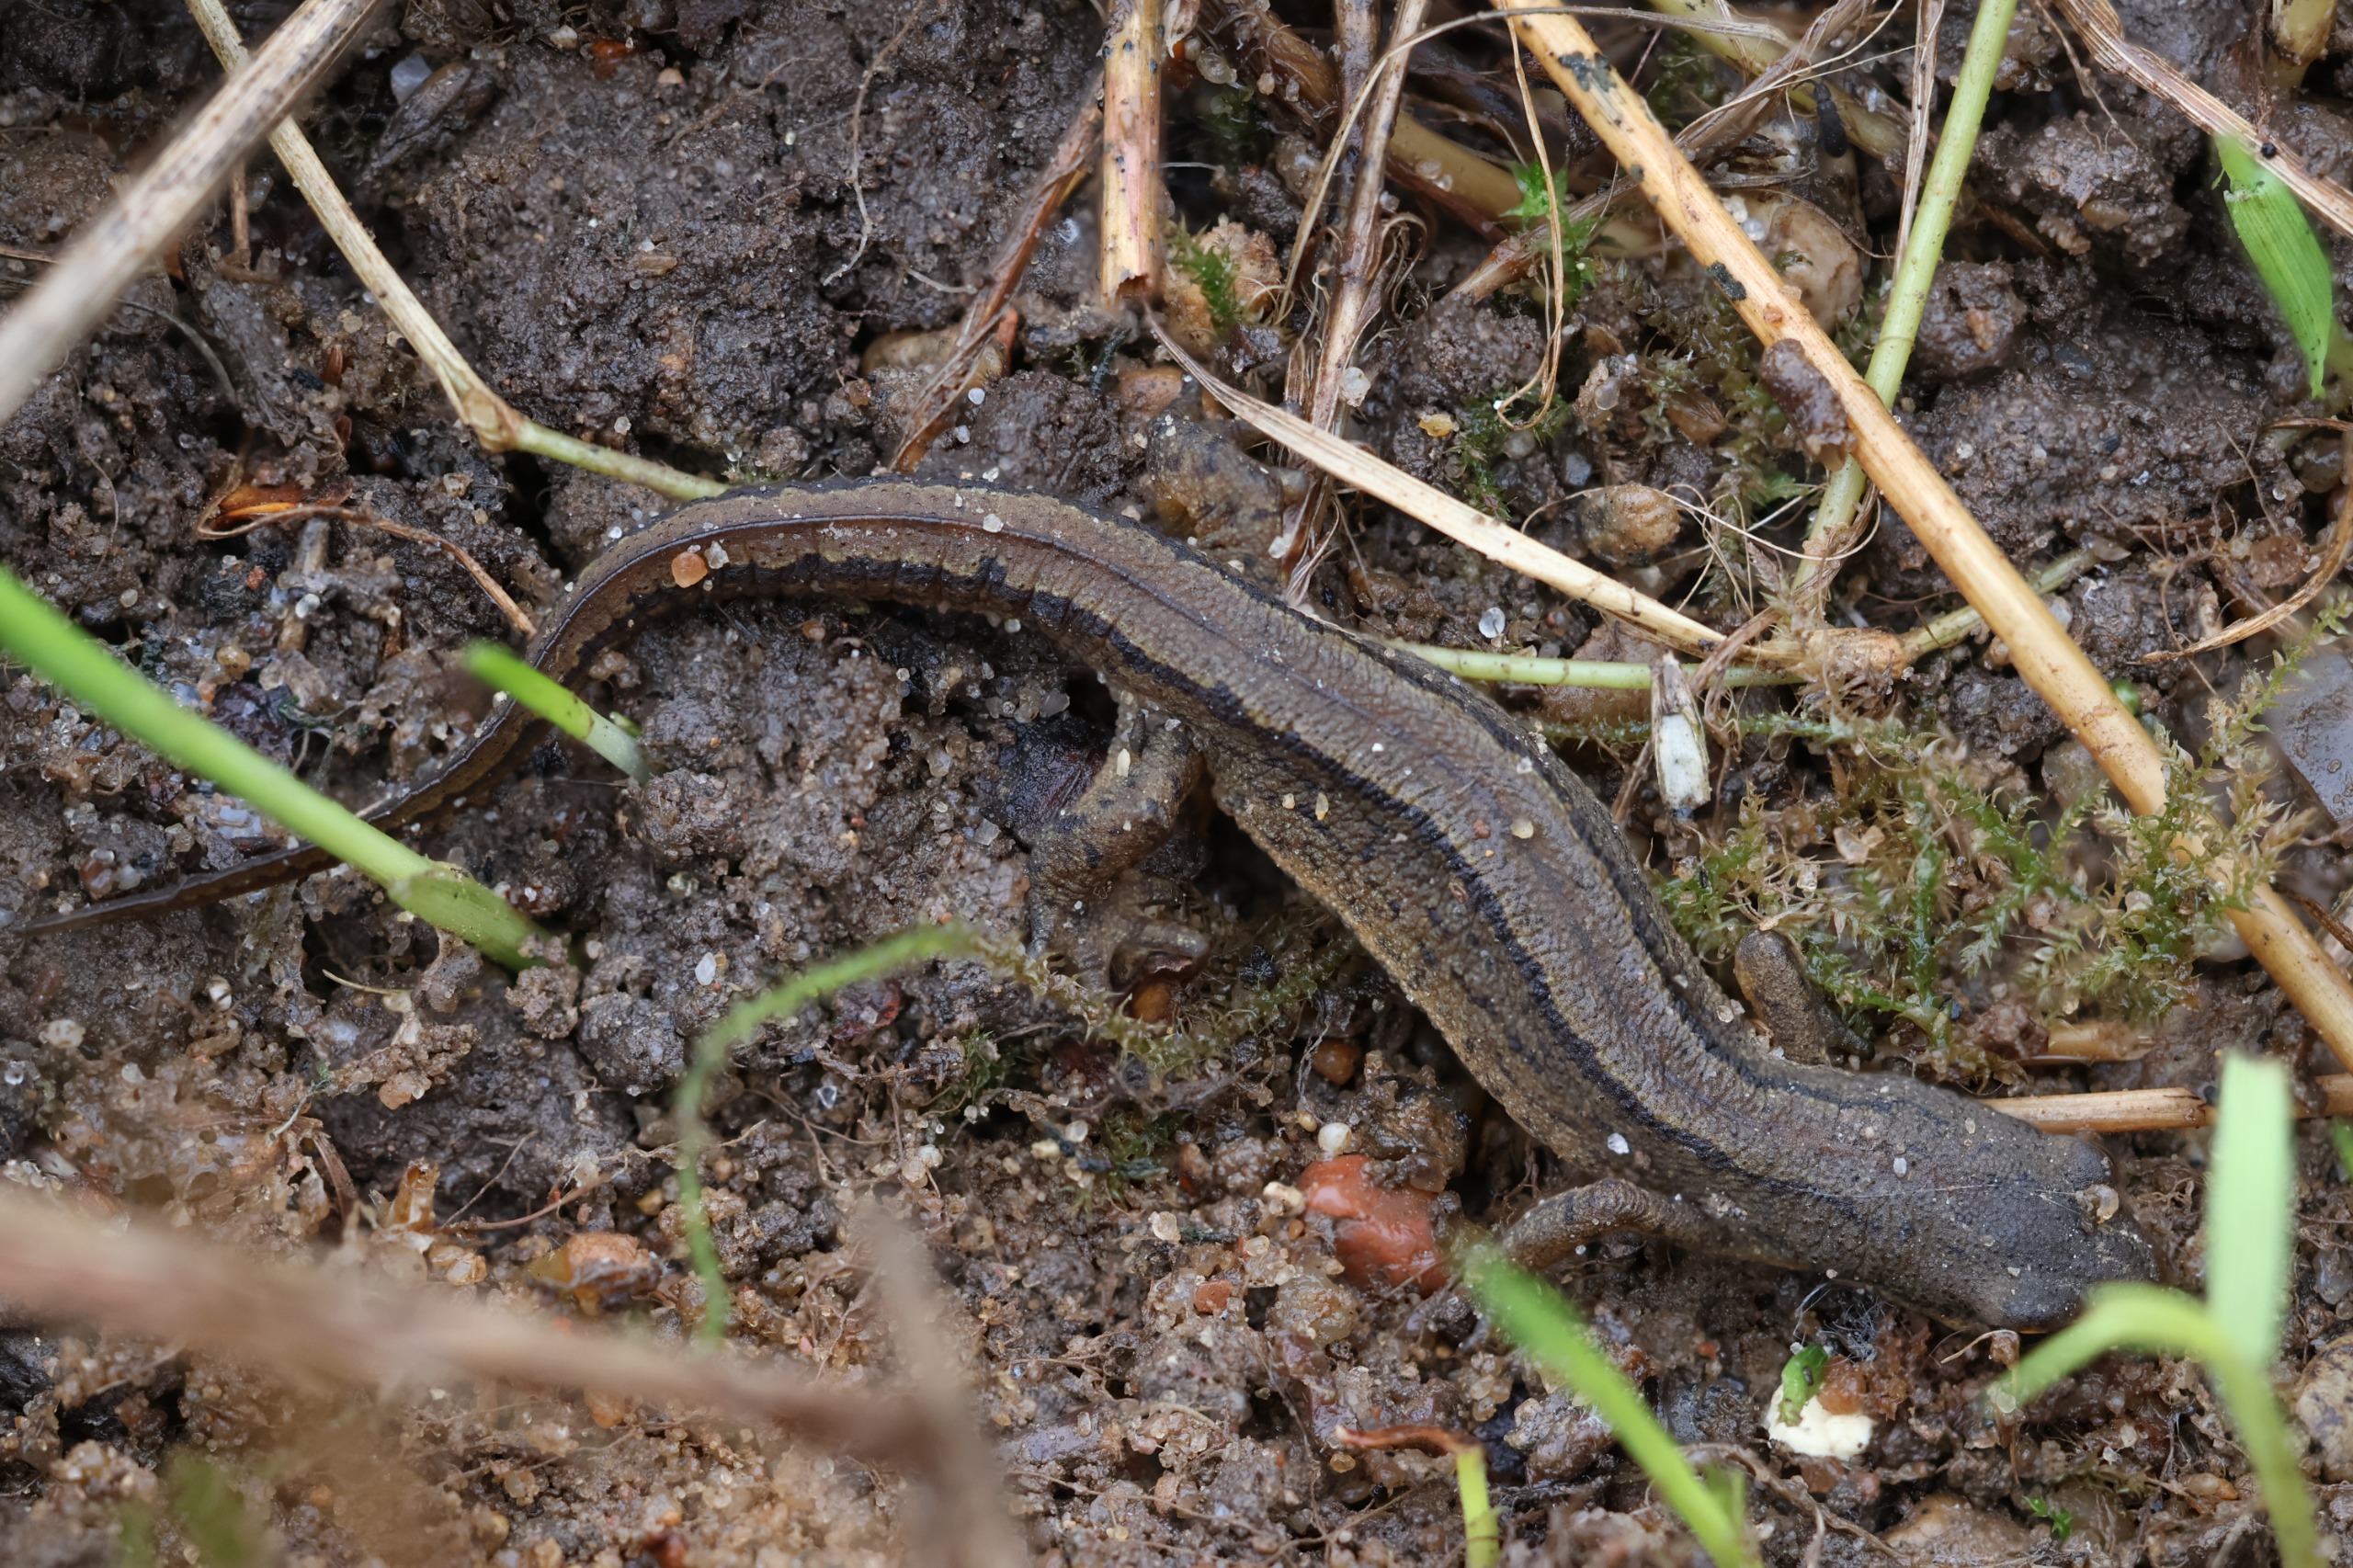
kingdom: Animalia
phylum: Chordata
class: Amphibia
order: Caudata
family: Salamandridae
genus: Lissotriton
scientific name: Lissotriton vulgaris
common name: Lille vandsalamander
